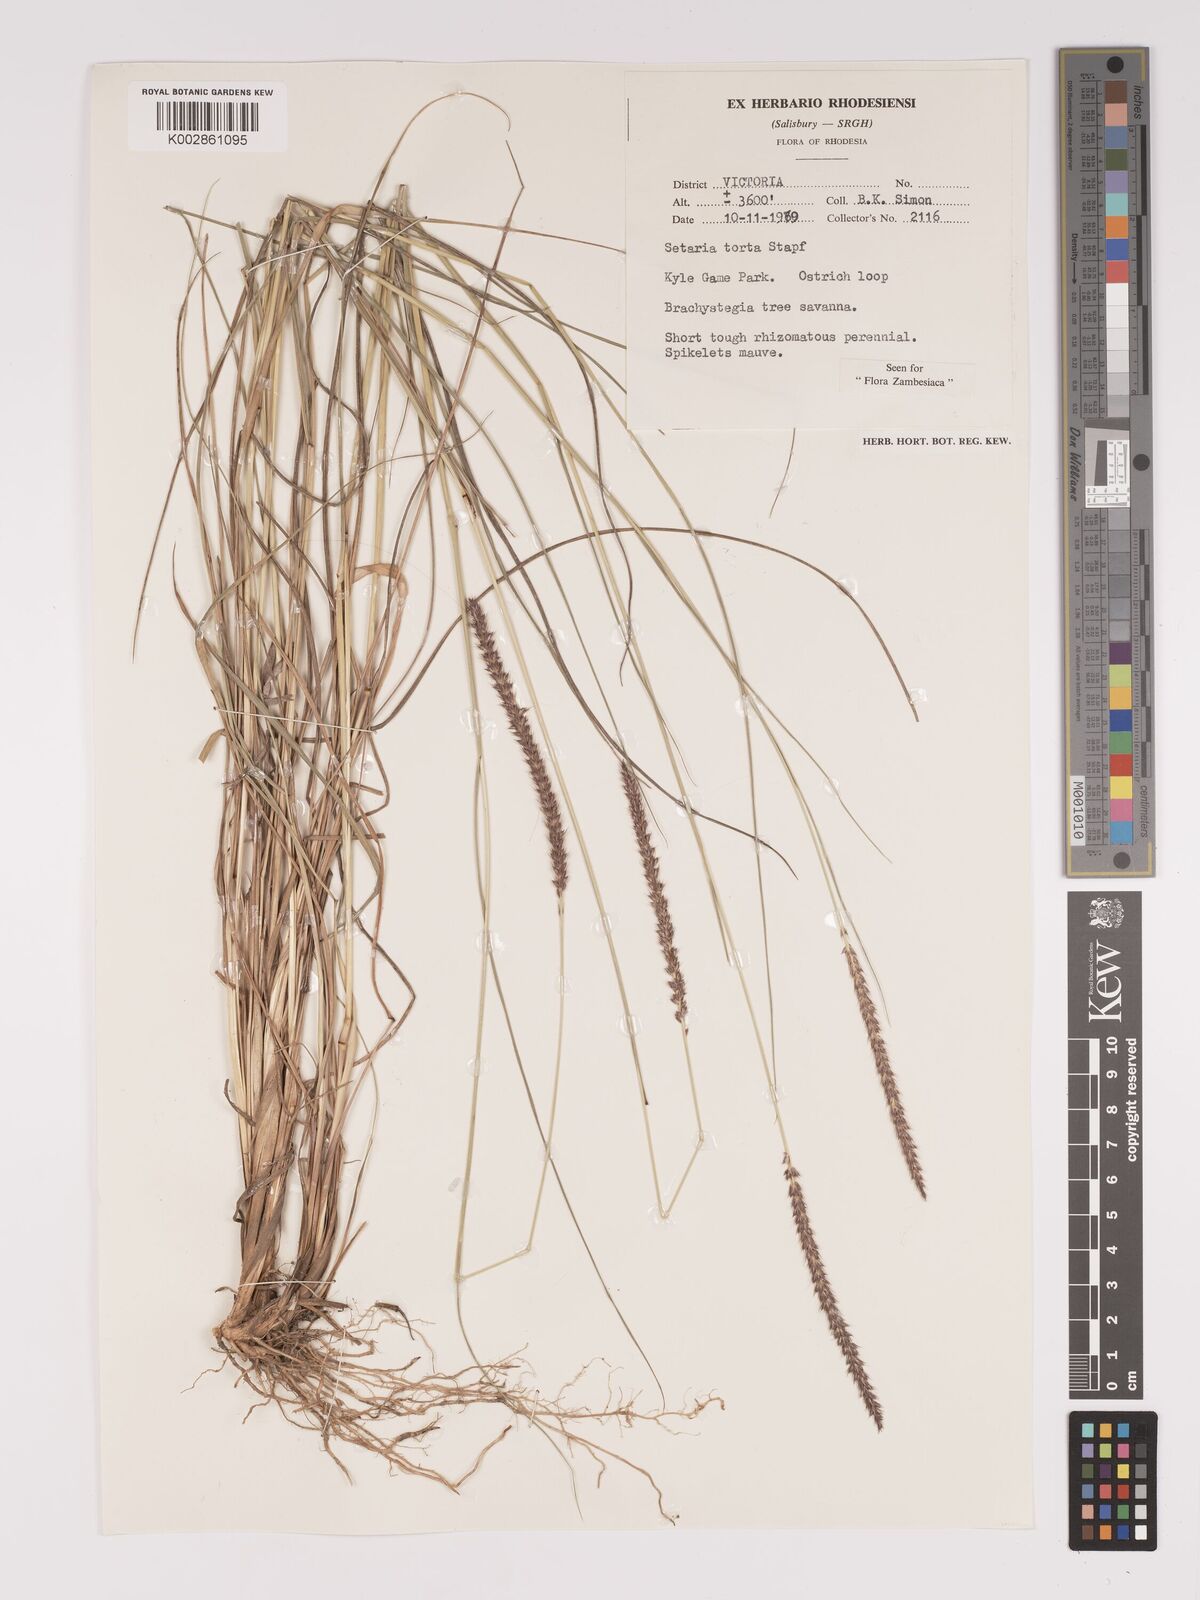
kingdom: Plantae
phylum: Tracheophyta
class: Liliopsida
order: Poales
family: Poaceae
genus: Setaria
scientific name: Setaria sphacelata
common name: African bristlegrass
